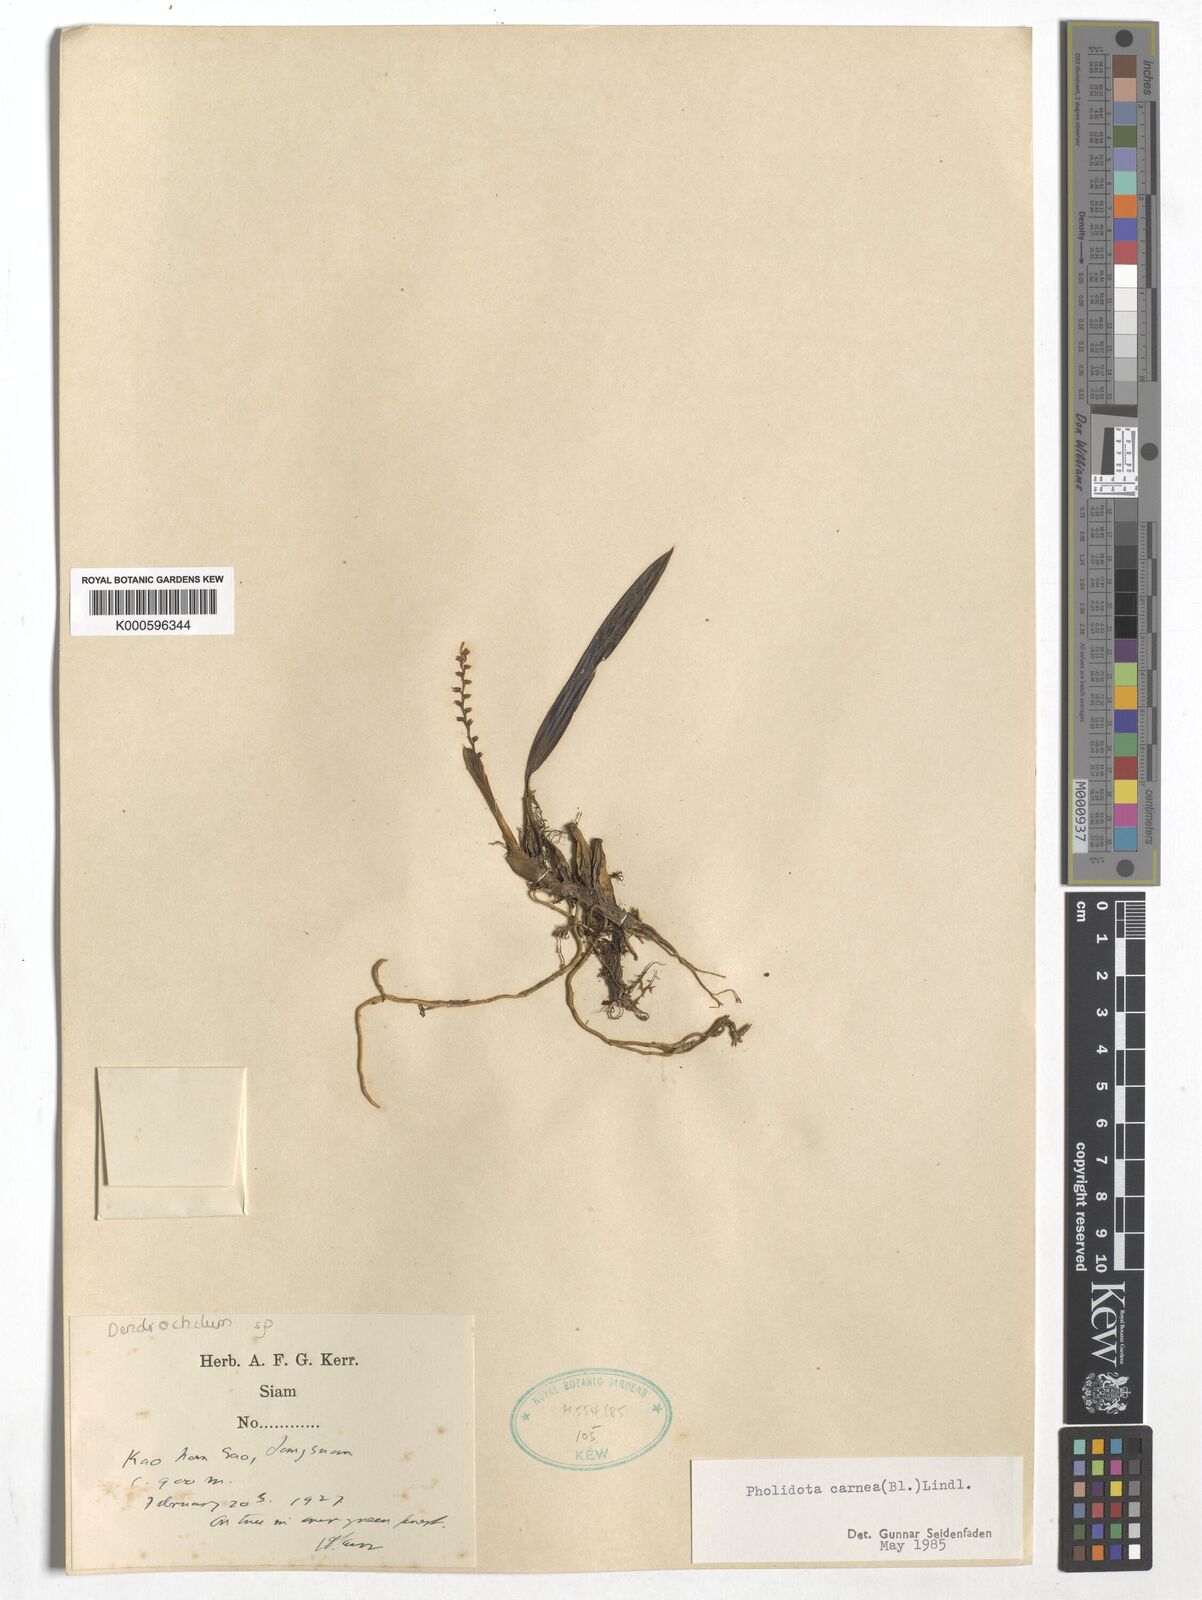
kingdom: Plantae
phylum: Tracheophyta
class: Liliopsida
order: Asparagales
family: Orchidaceae
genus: Coelogyne
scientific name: Coelogyne carnea
